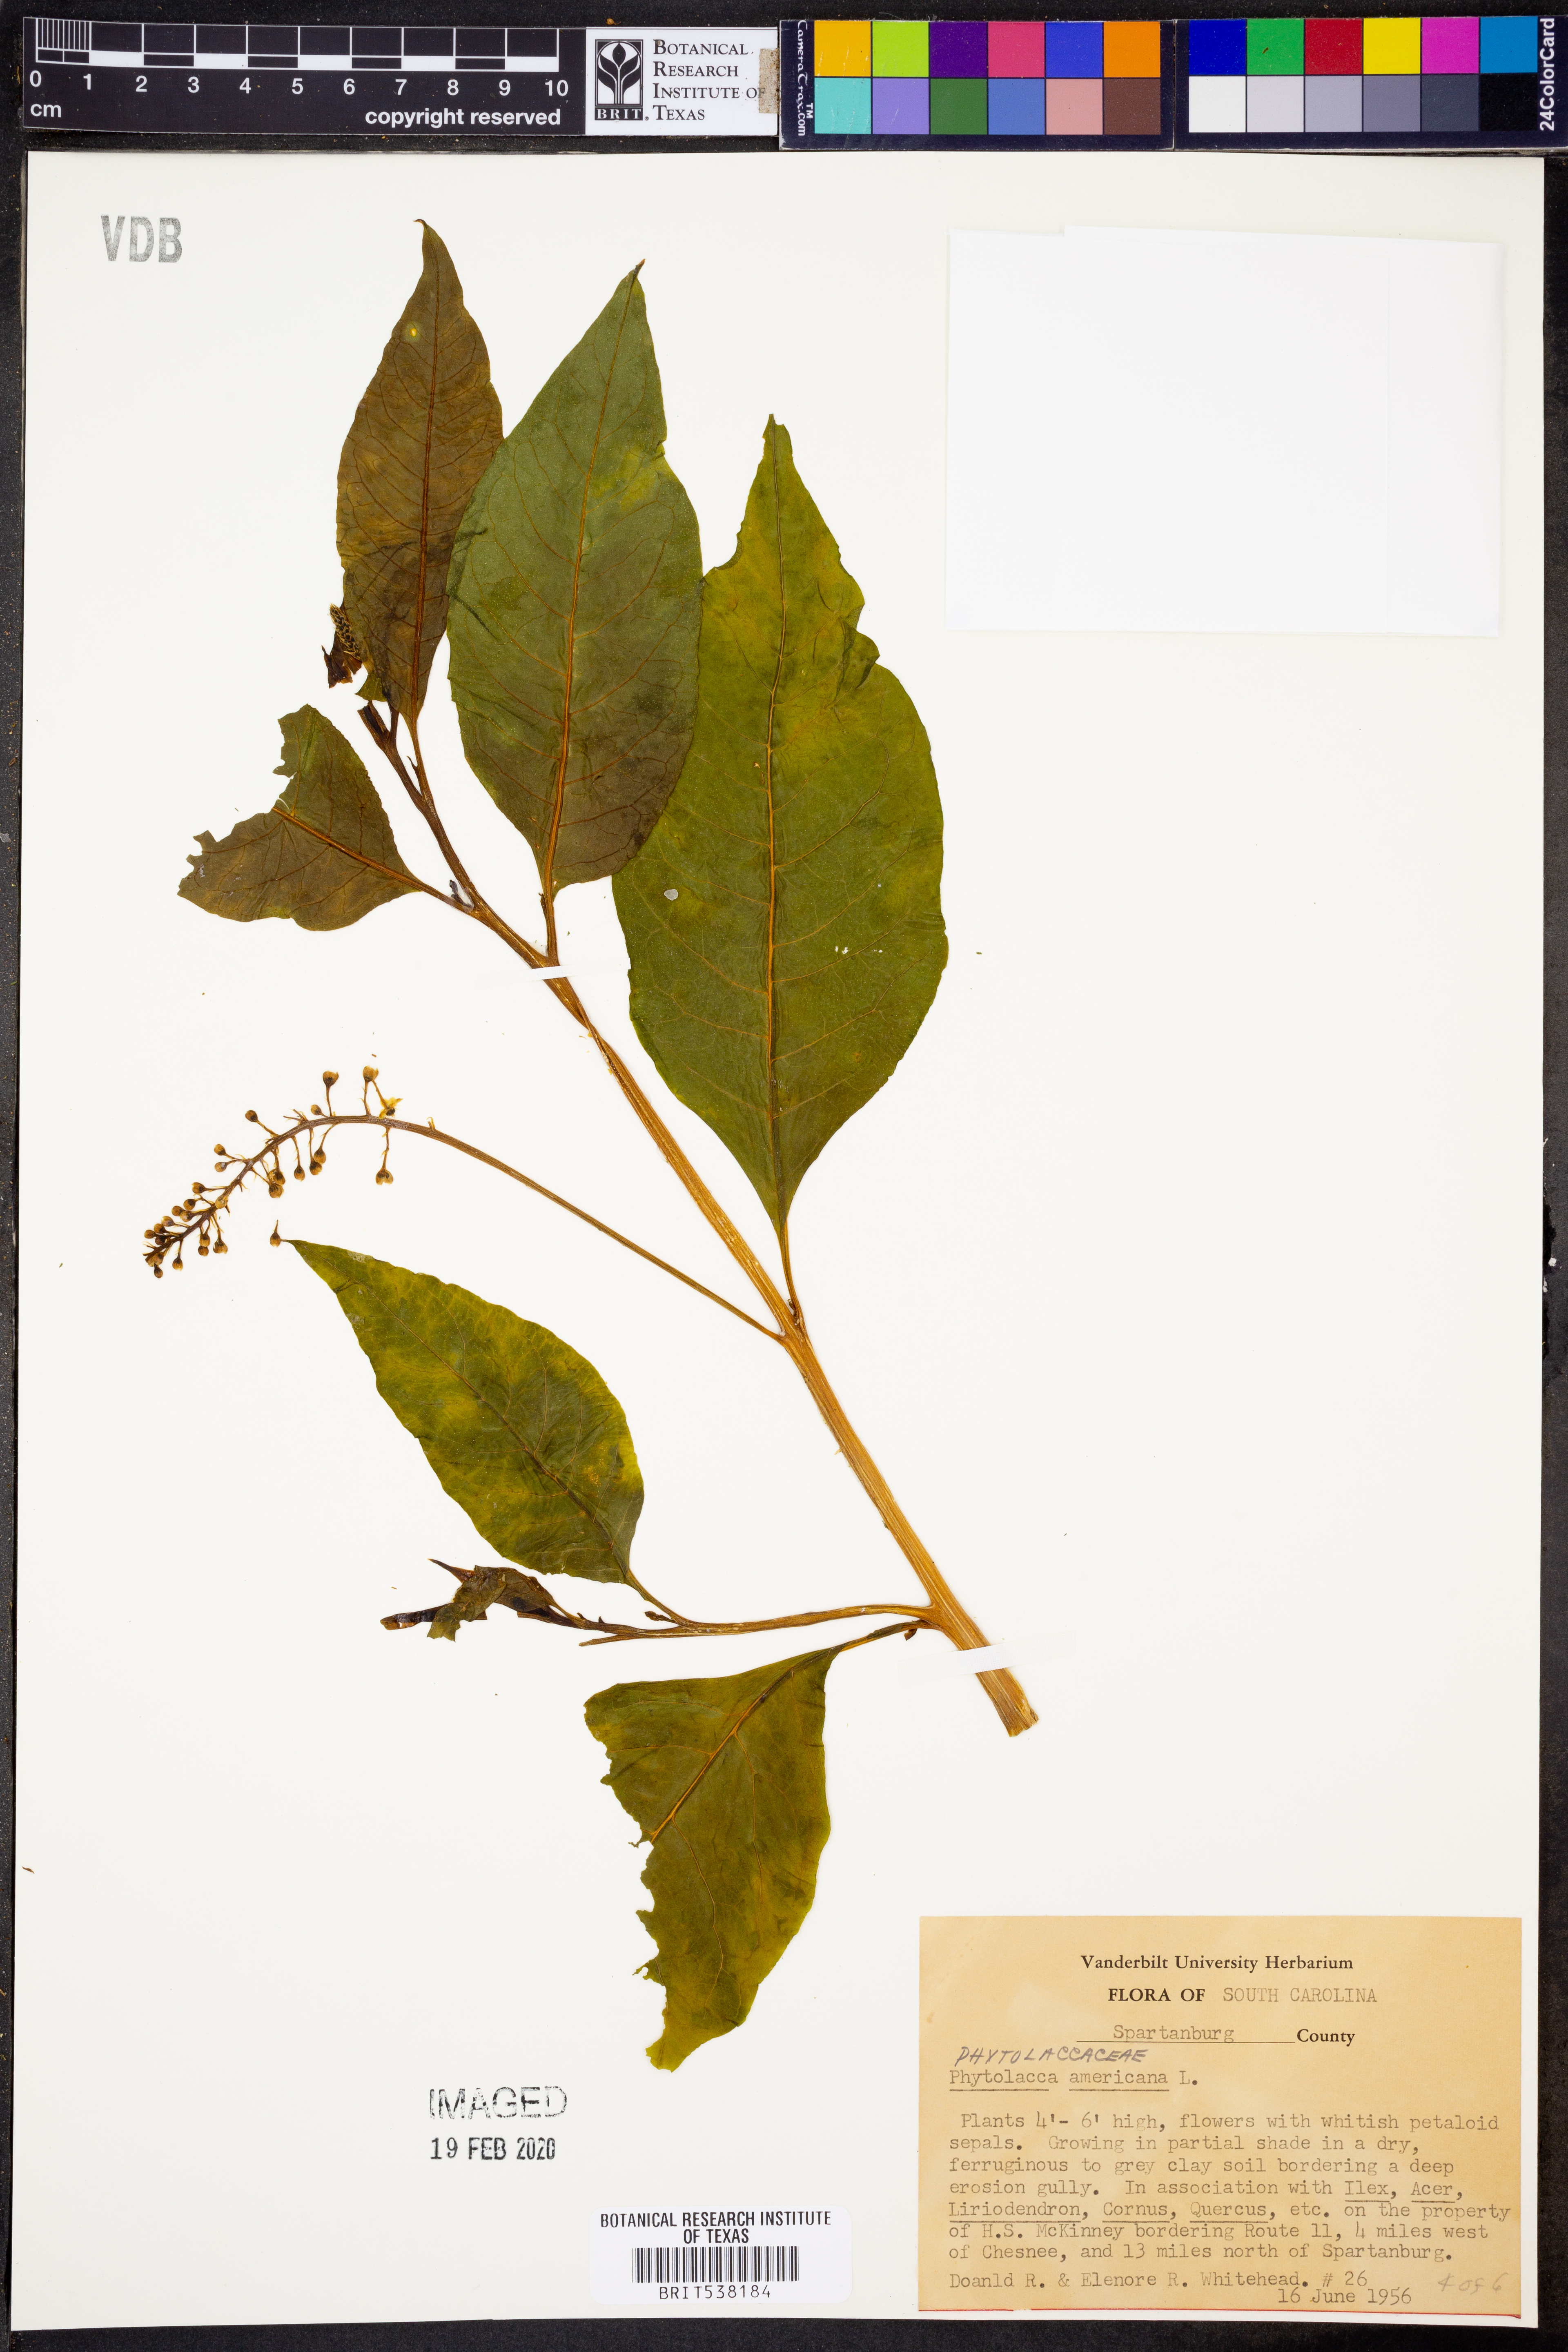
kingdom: Plantae
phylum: Tracheophyta
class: Magnoliopsida
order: Caryophyllales
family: Phytolaccaceae
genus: Phytolacca
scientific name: Phytolacca americana
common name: American pokeweed
